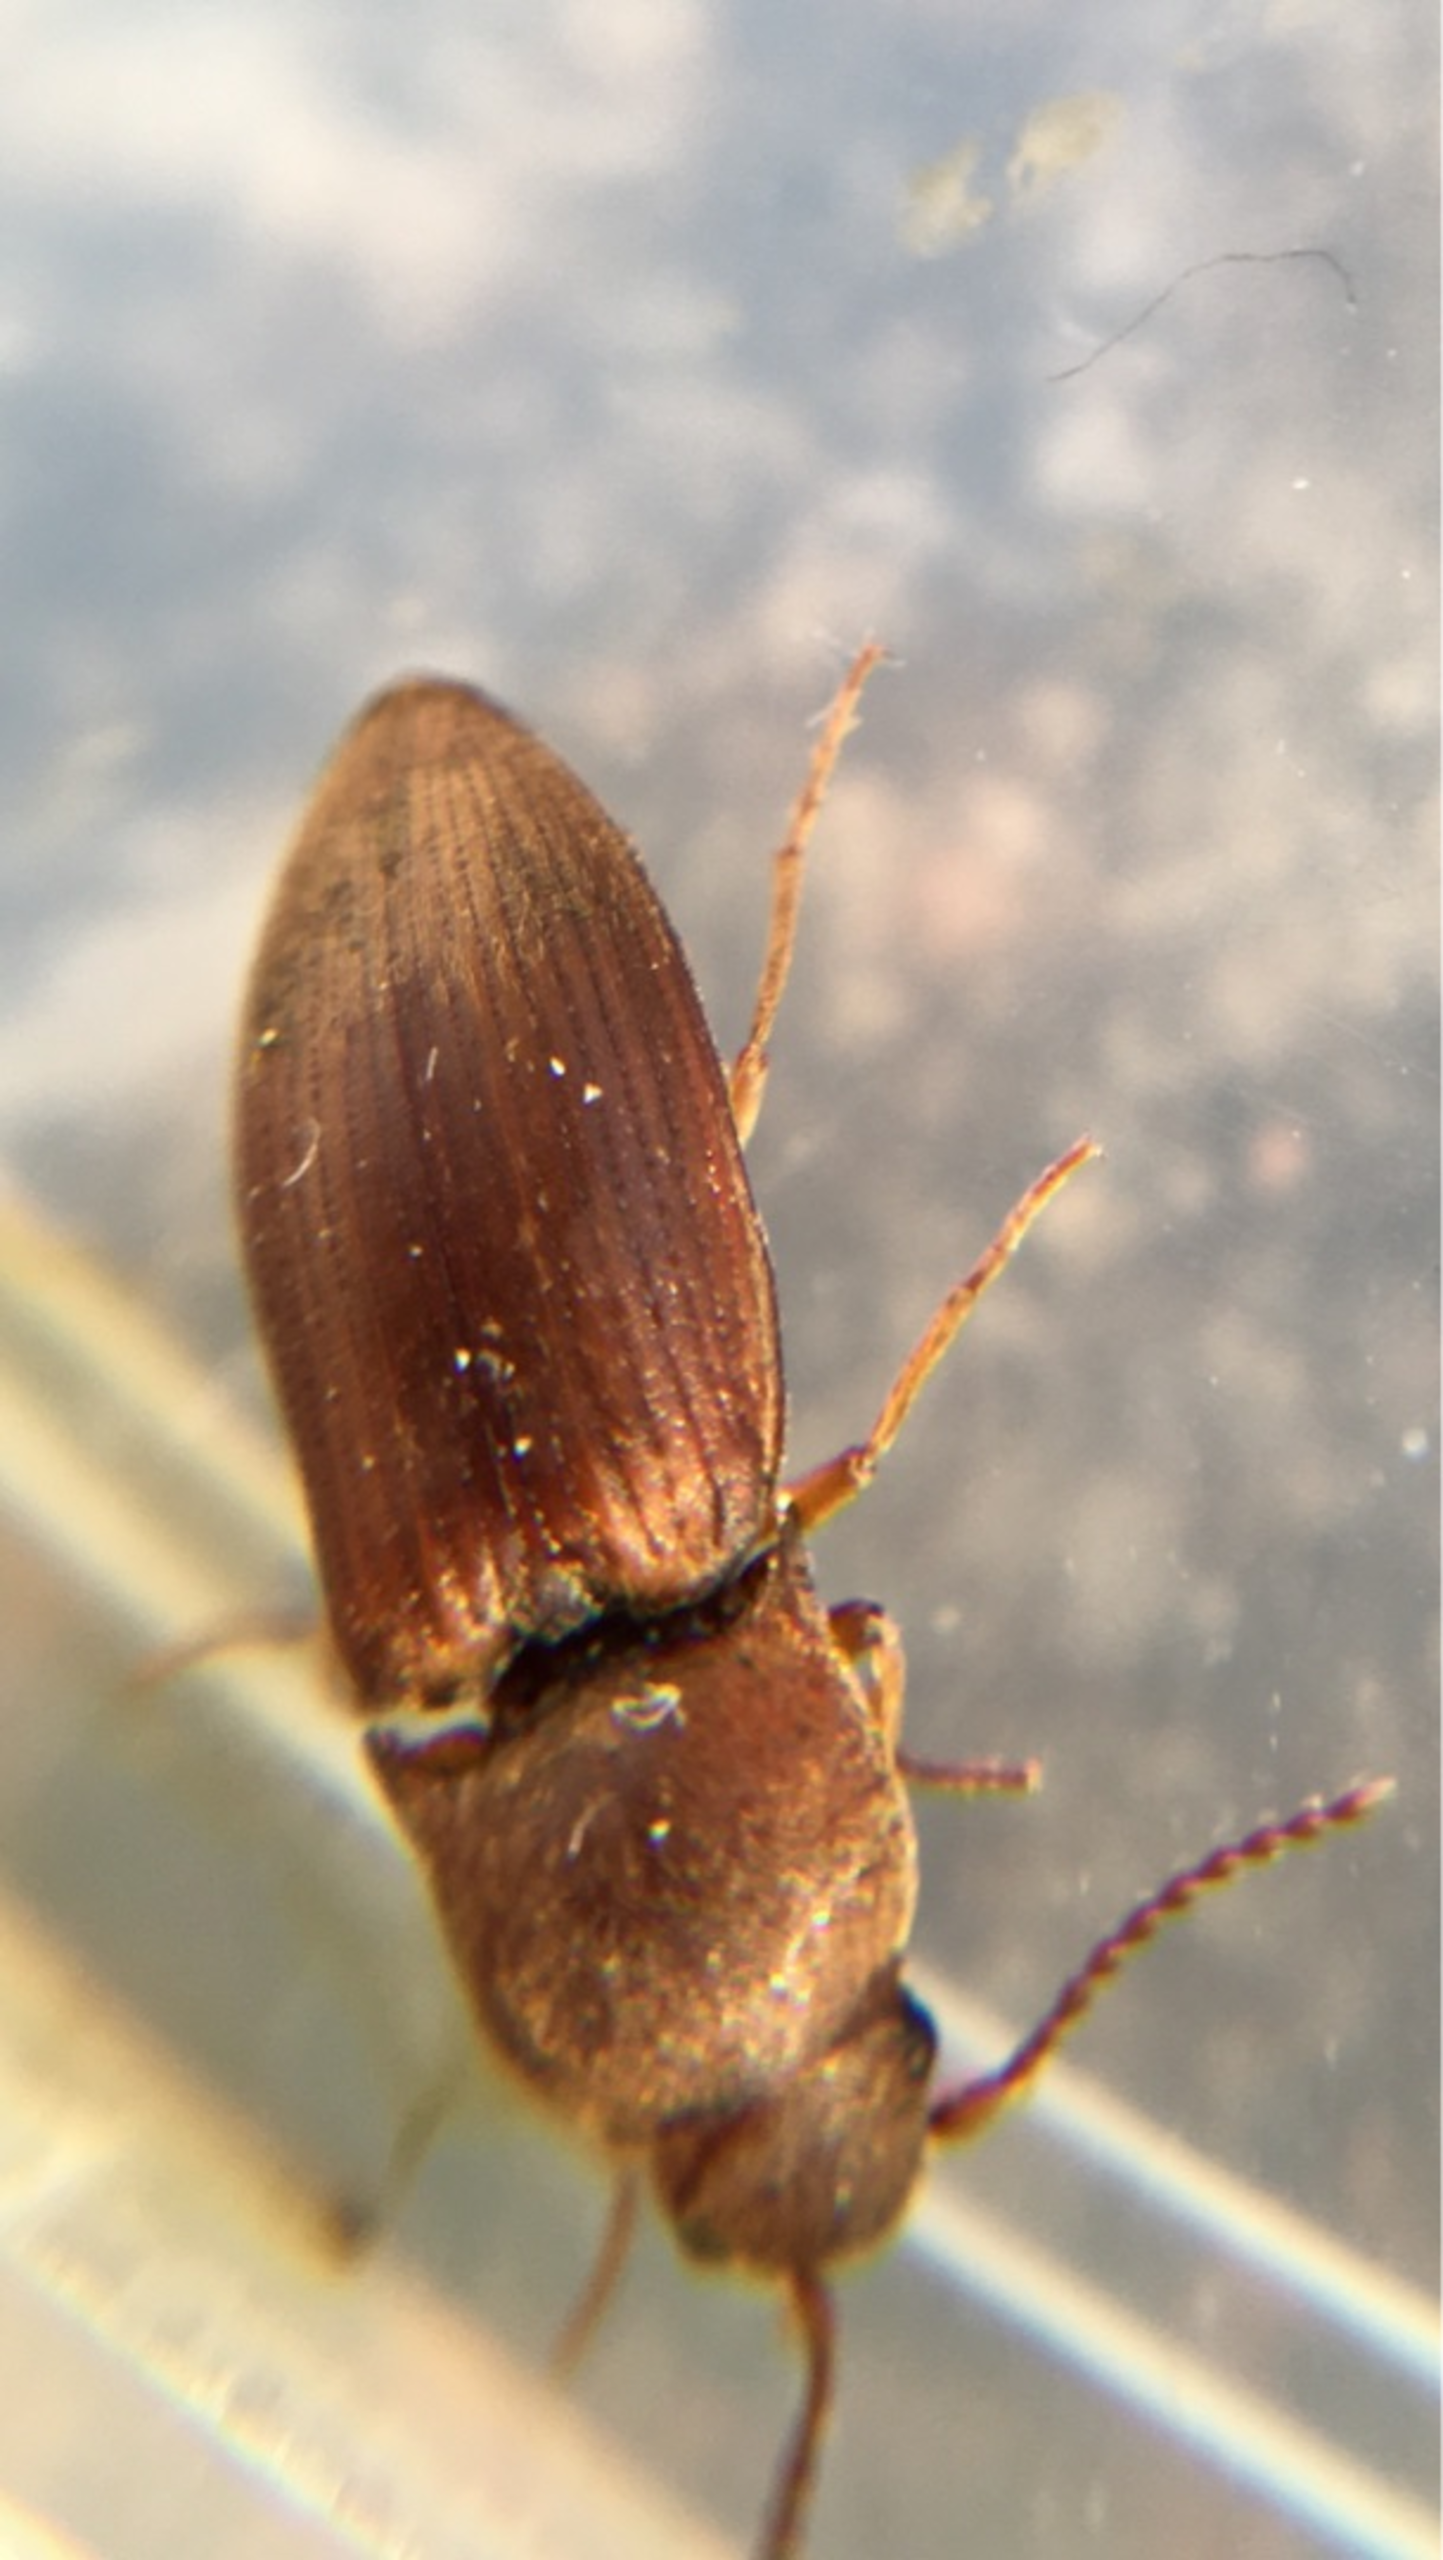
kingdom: Animalia
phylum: Arthropoda
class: Insecta
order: Coleoptera
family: Elateridae
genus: Agriotes
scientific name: Agriotes obscurus
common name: Mørk kornsmælder
